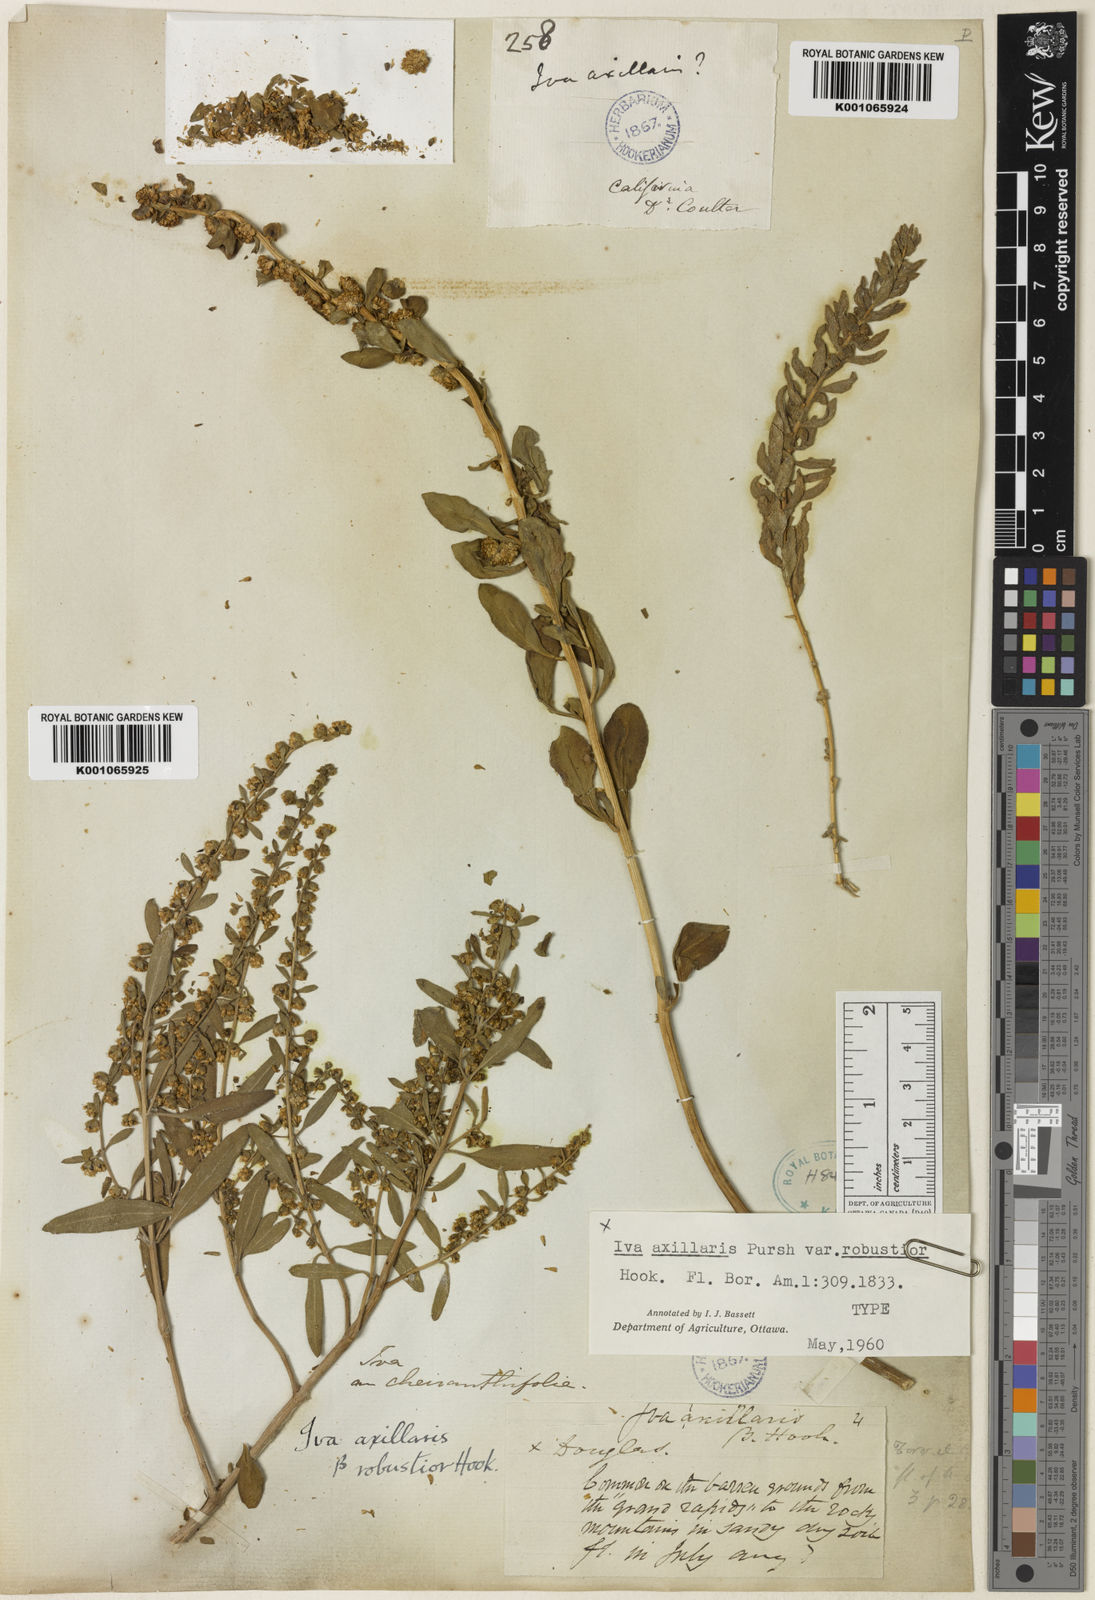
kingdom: Plantae
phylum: Tracheophyta
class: Magnoliopsida
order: Asterales
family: Asteraceae
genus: Iva
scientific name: Iva axillaris
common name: Poverty sumpweed
